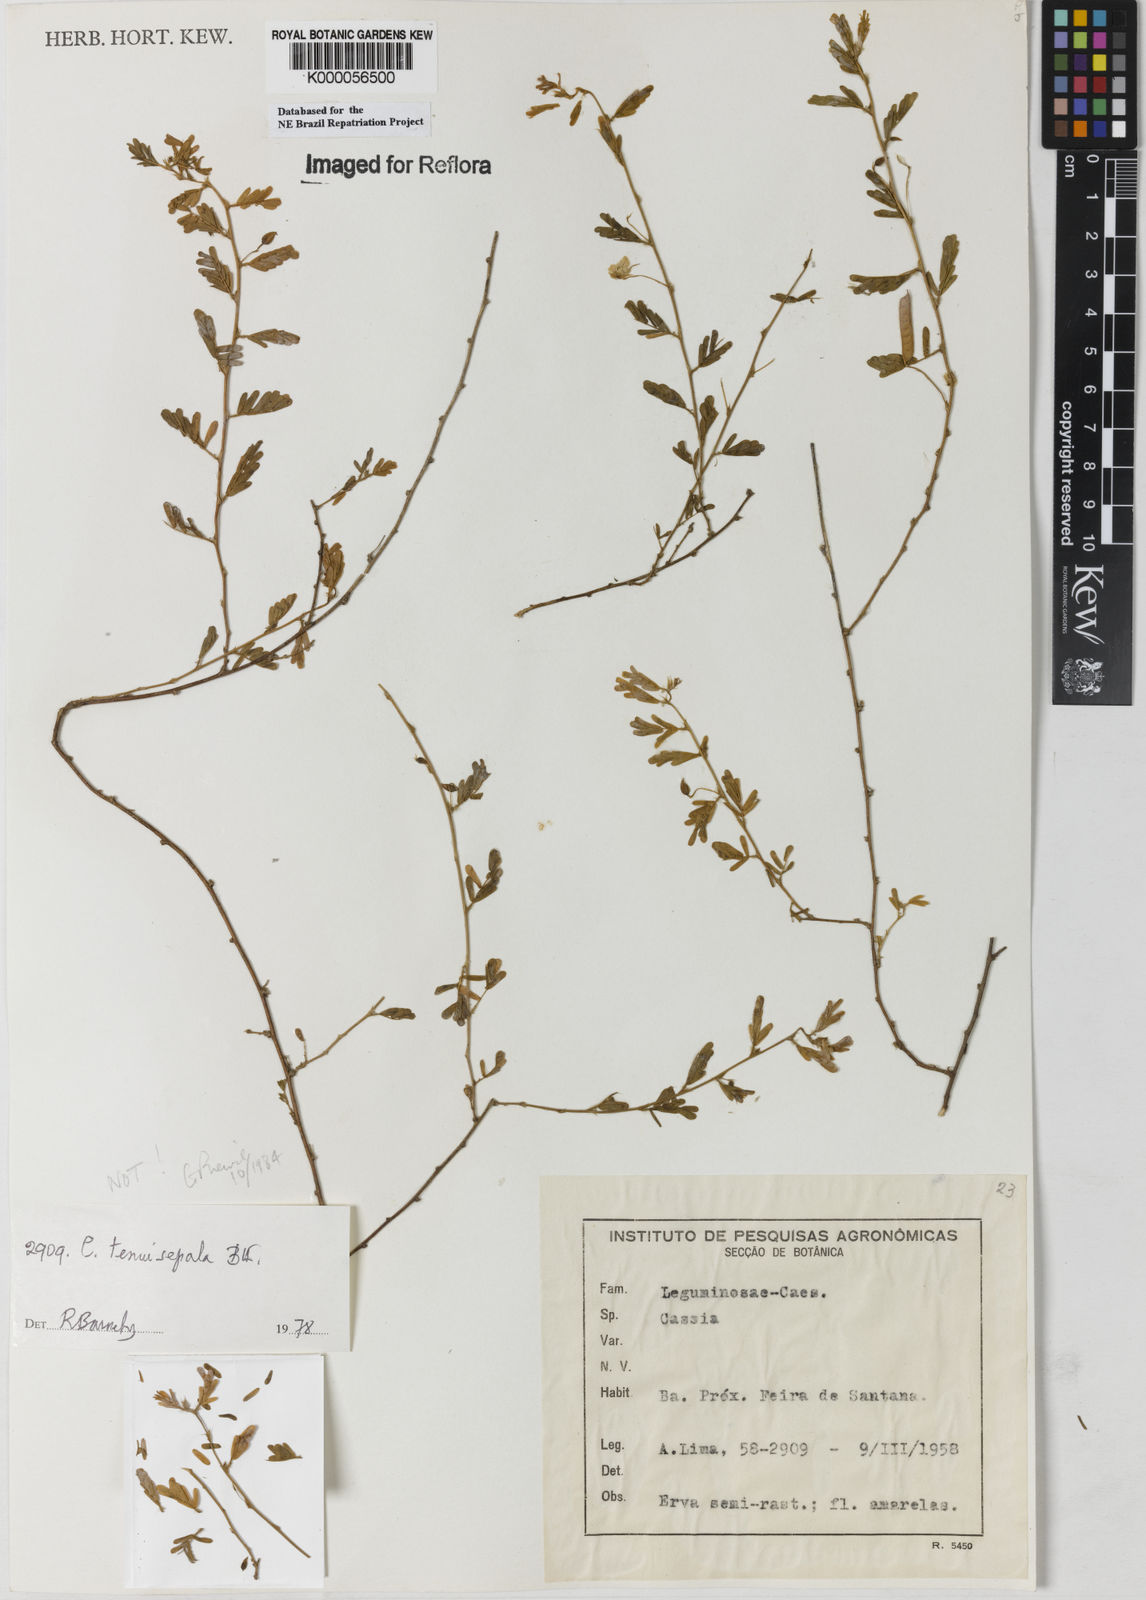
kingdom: Plantae
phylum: Tracheophyta
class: Magnoliopsida
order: Fabales
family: Fabaceae
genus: Chamaecrista
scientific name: Chamaecrista tenuisepala
